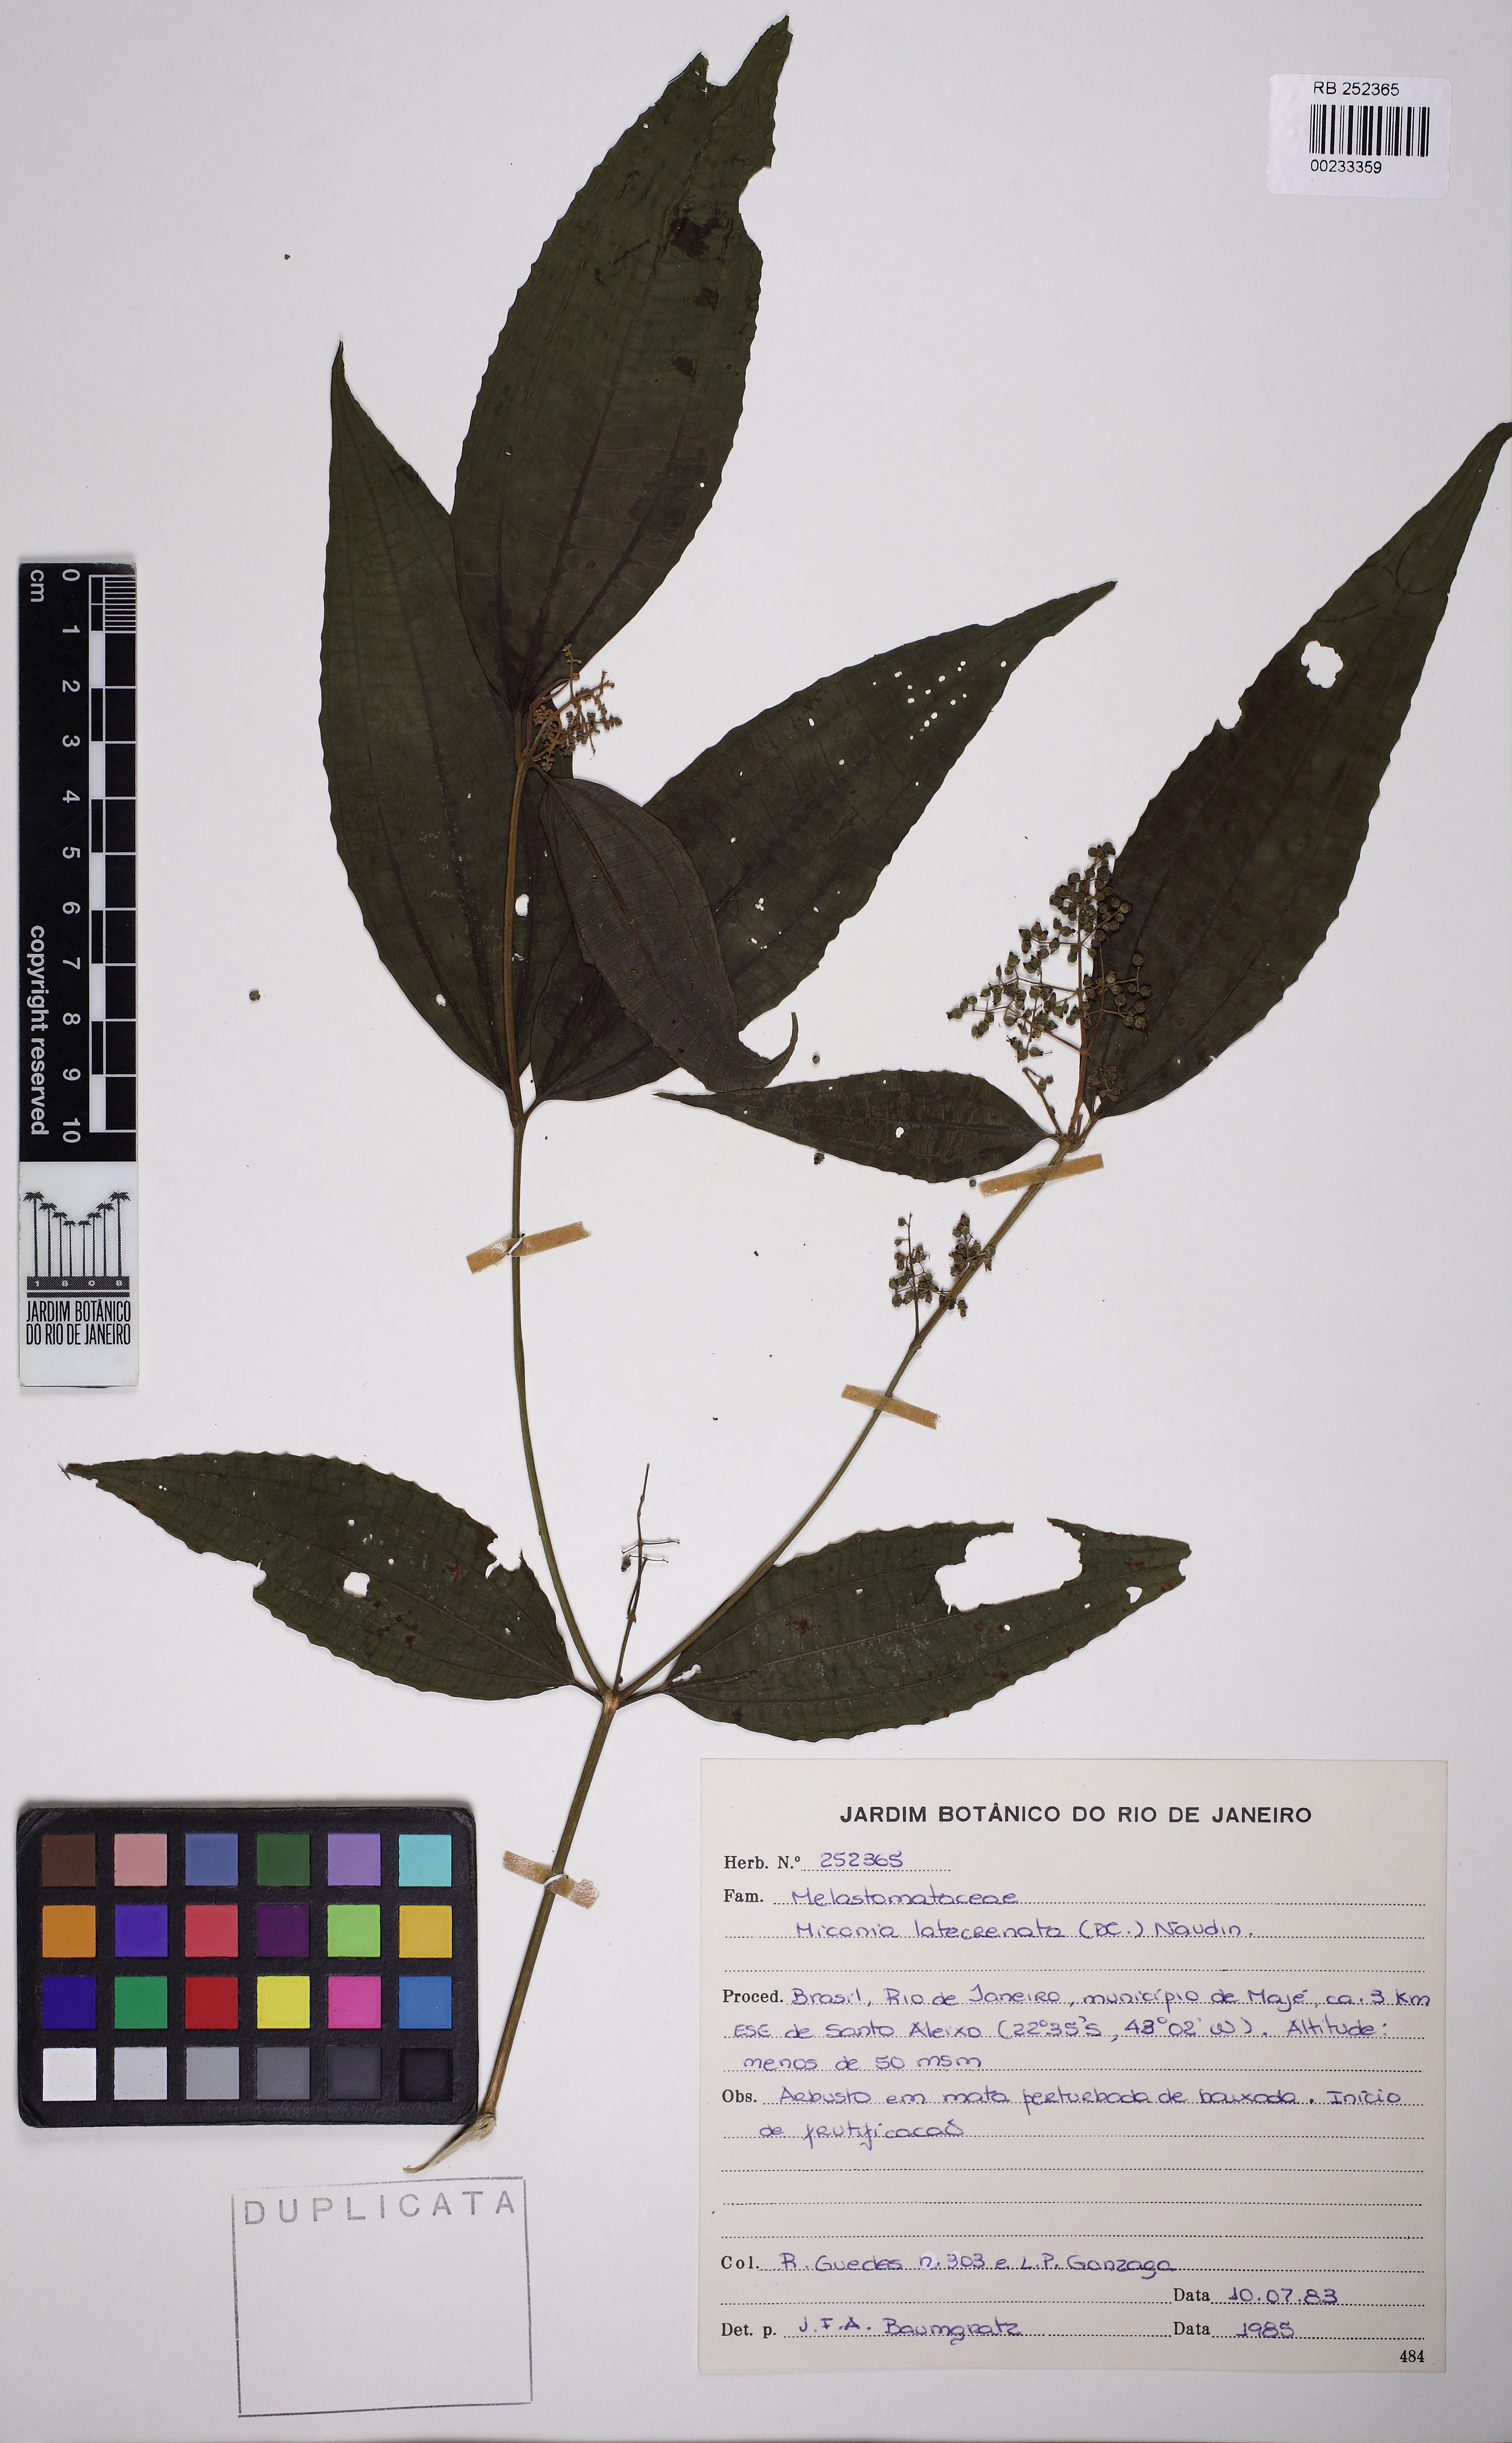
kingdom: Plantae
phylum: Tracheophyta
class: Magnoliopsida
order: Myrtales
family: Melastomataceae
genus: Miconia
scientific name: Miconia latecrenata
